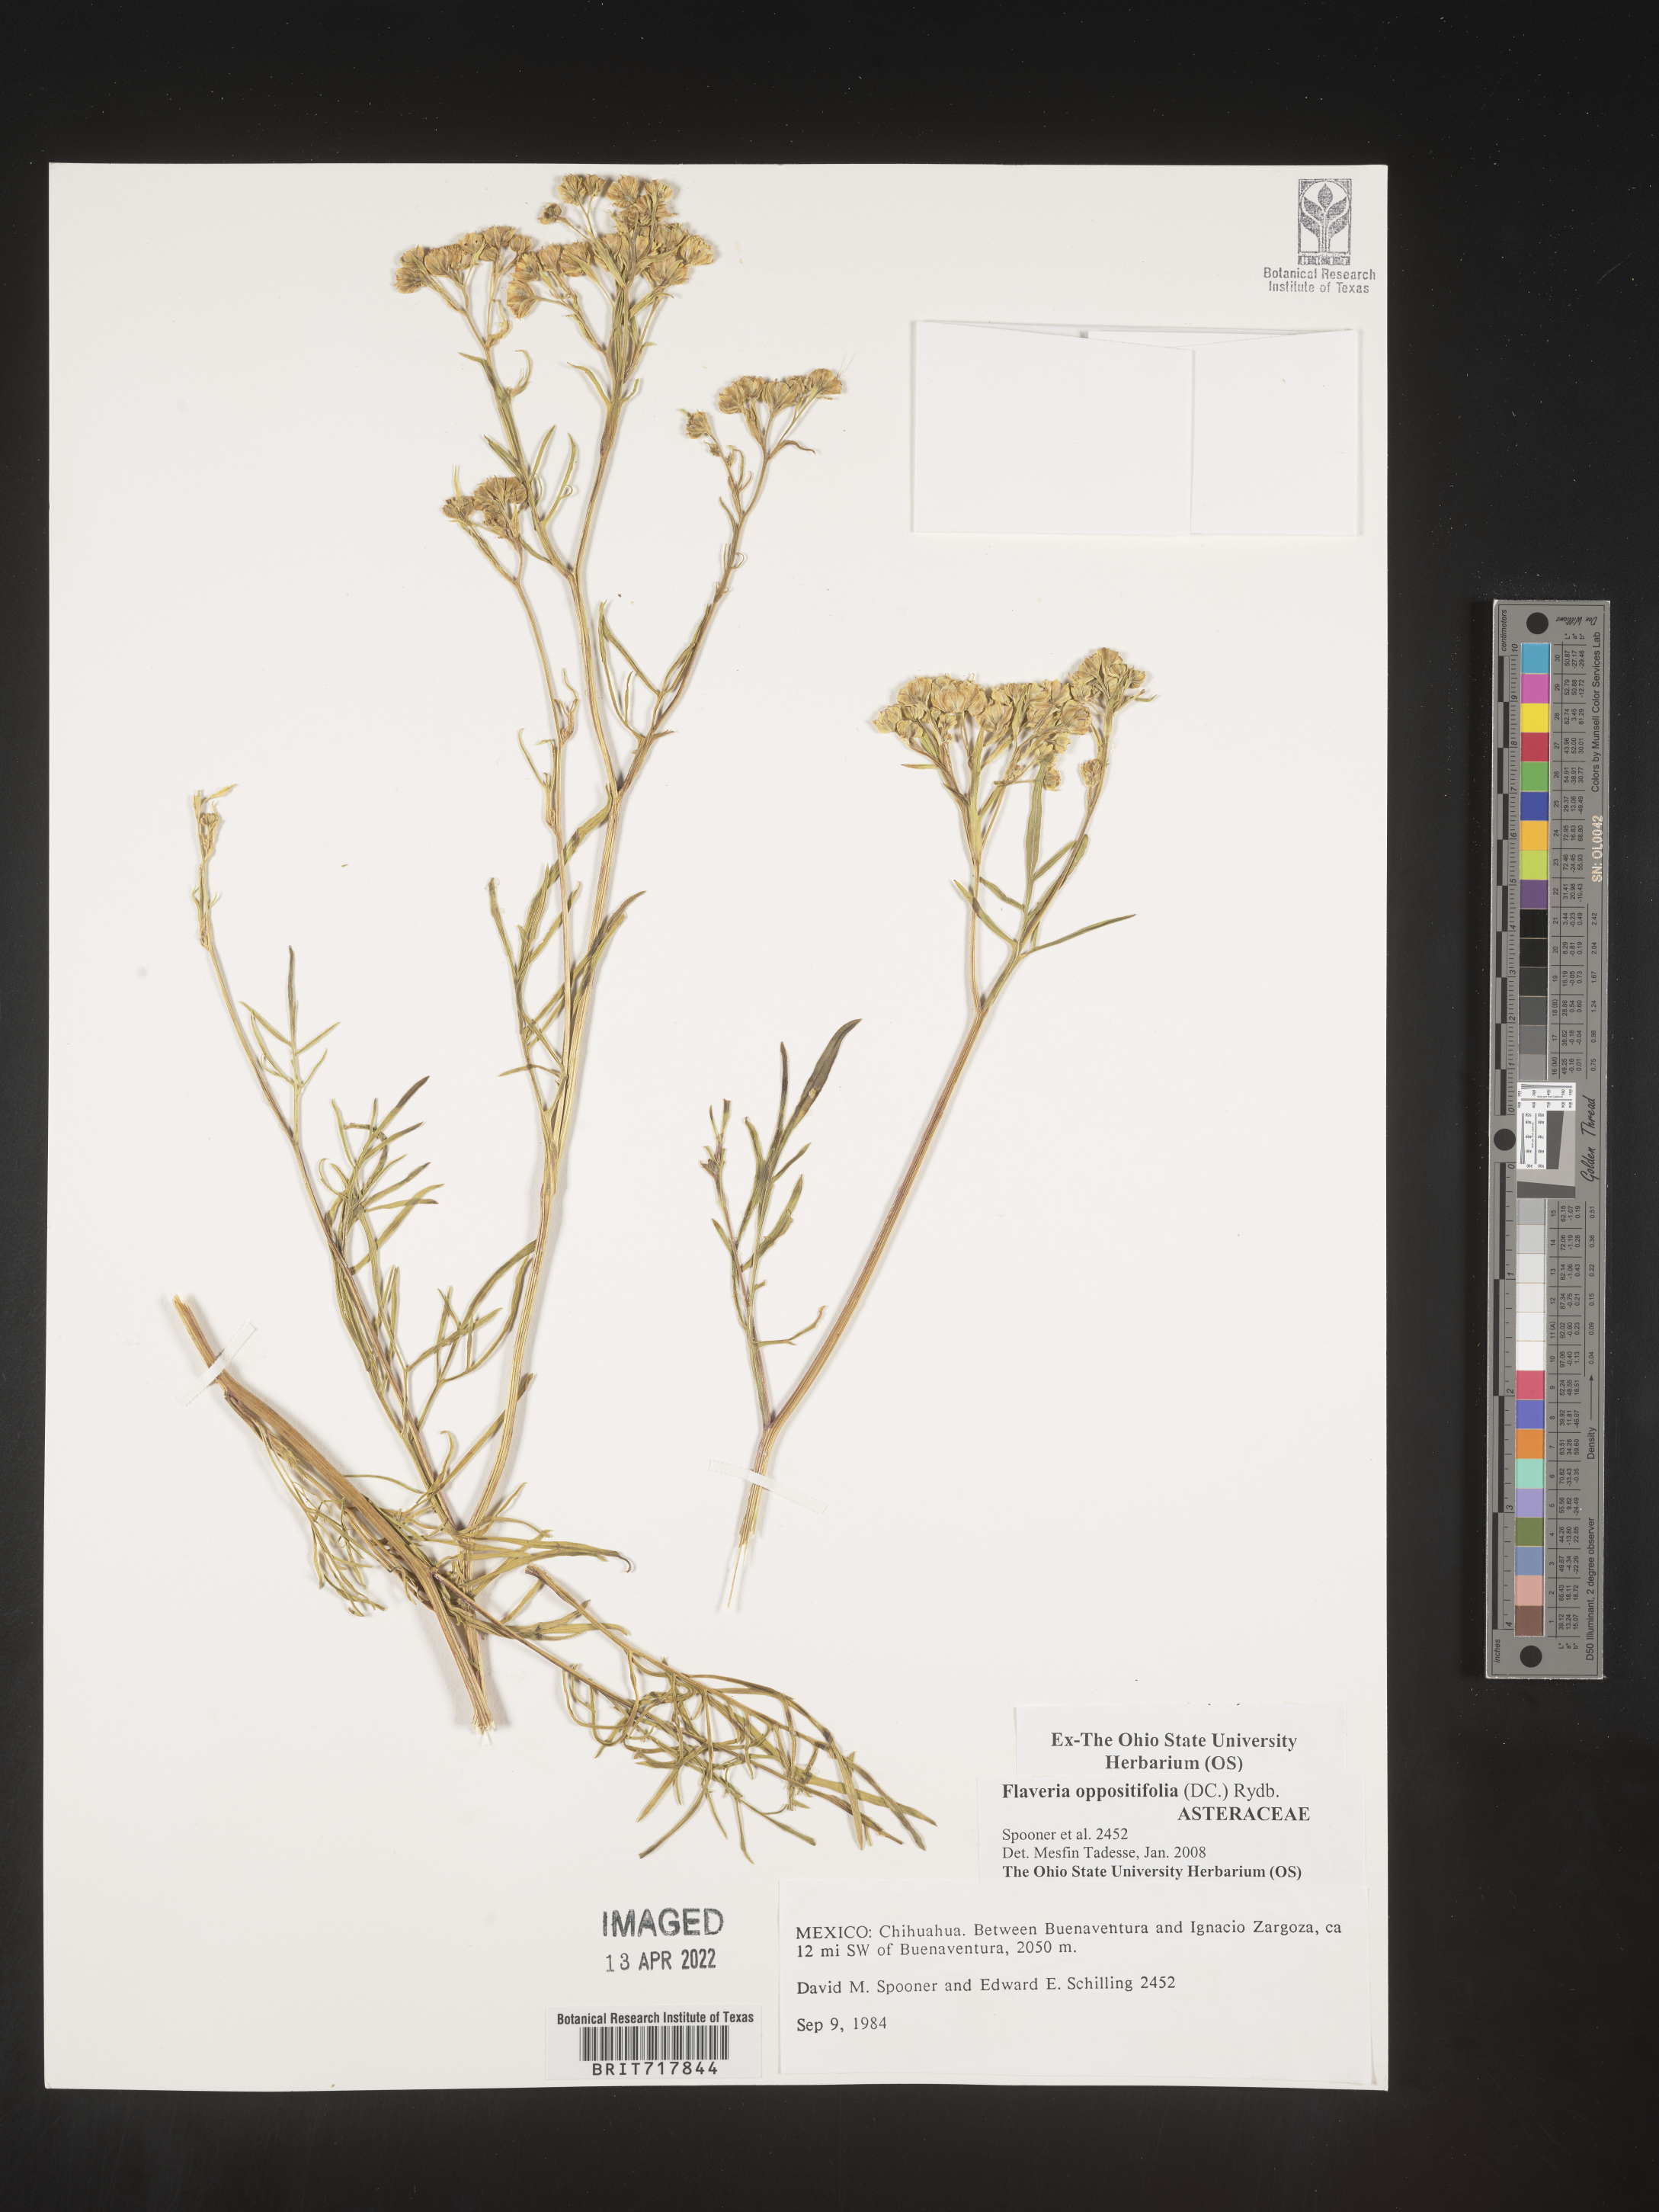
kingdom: Plantae
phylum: Tracheophyta
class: Magnoliopsida
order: Asterales
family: Asteraceae
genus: Flaveria
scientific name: Flaveria
